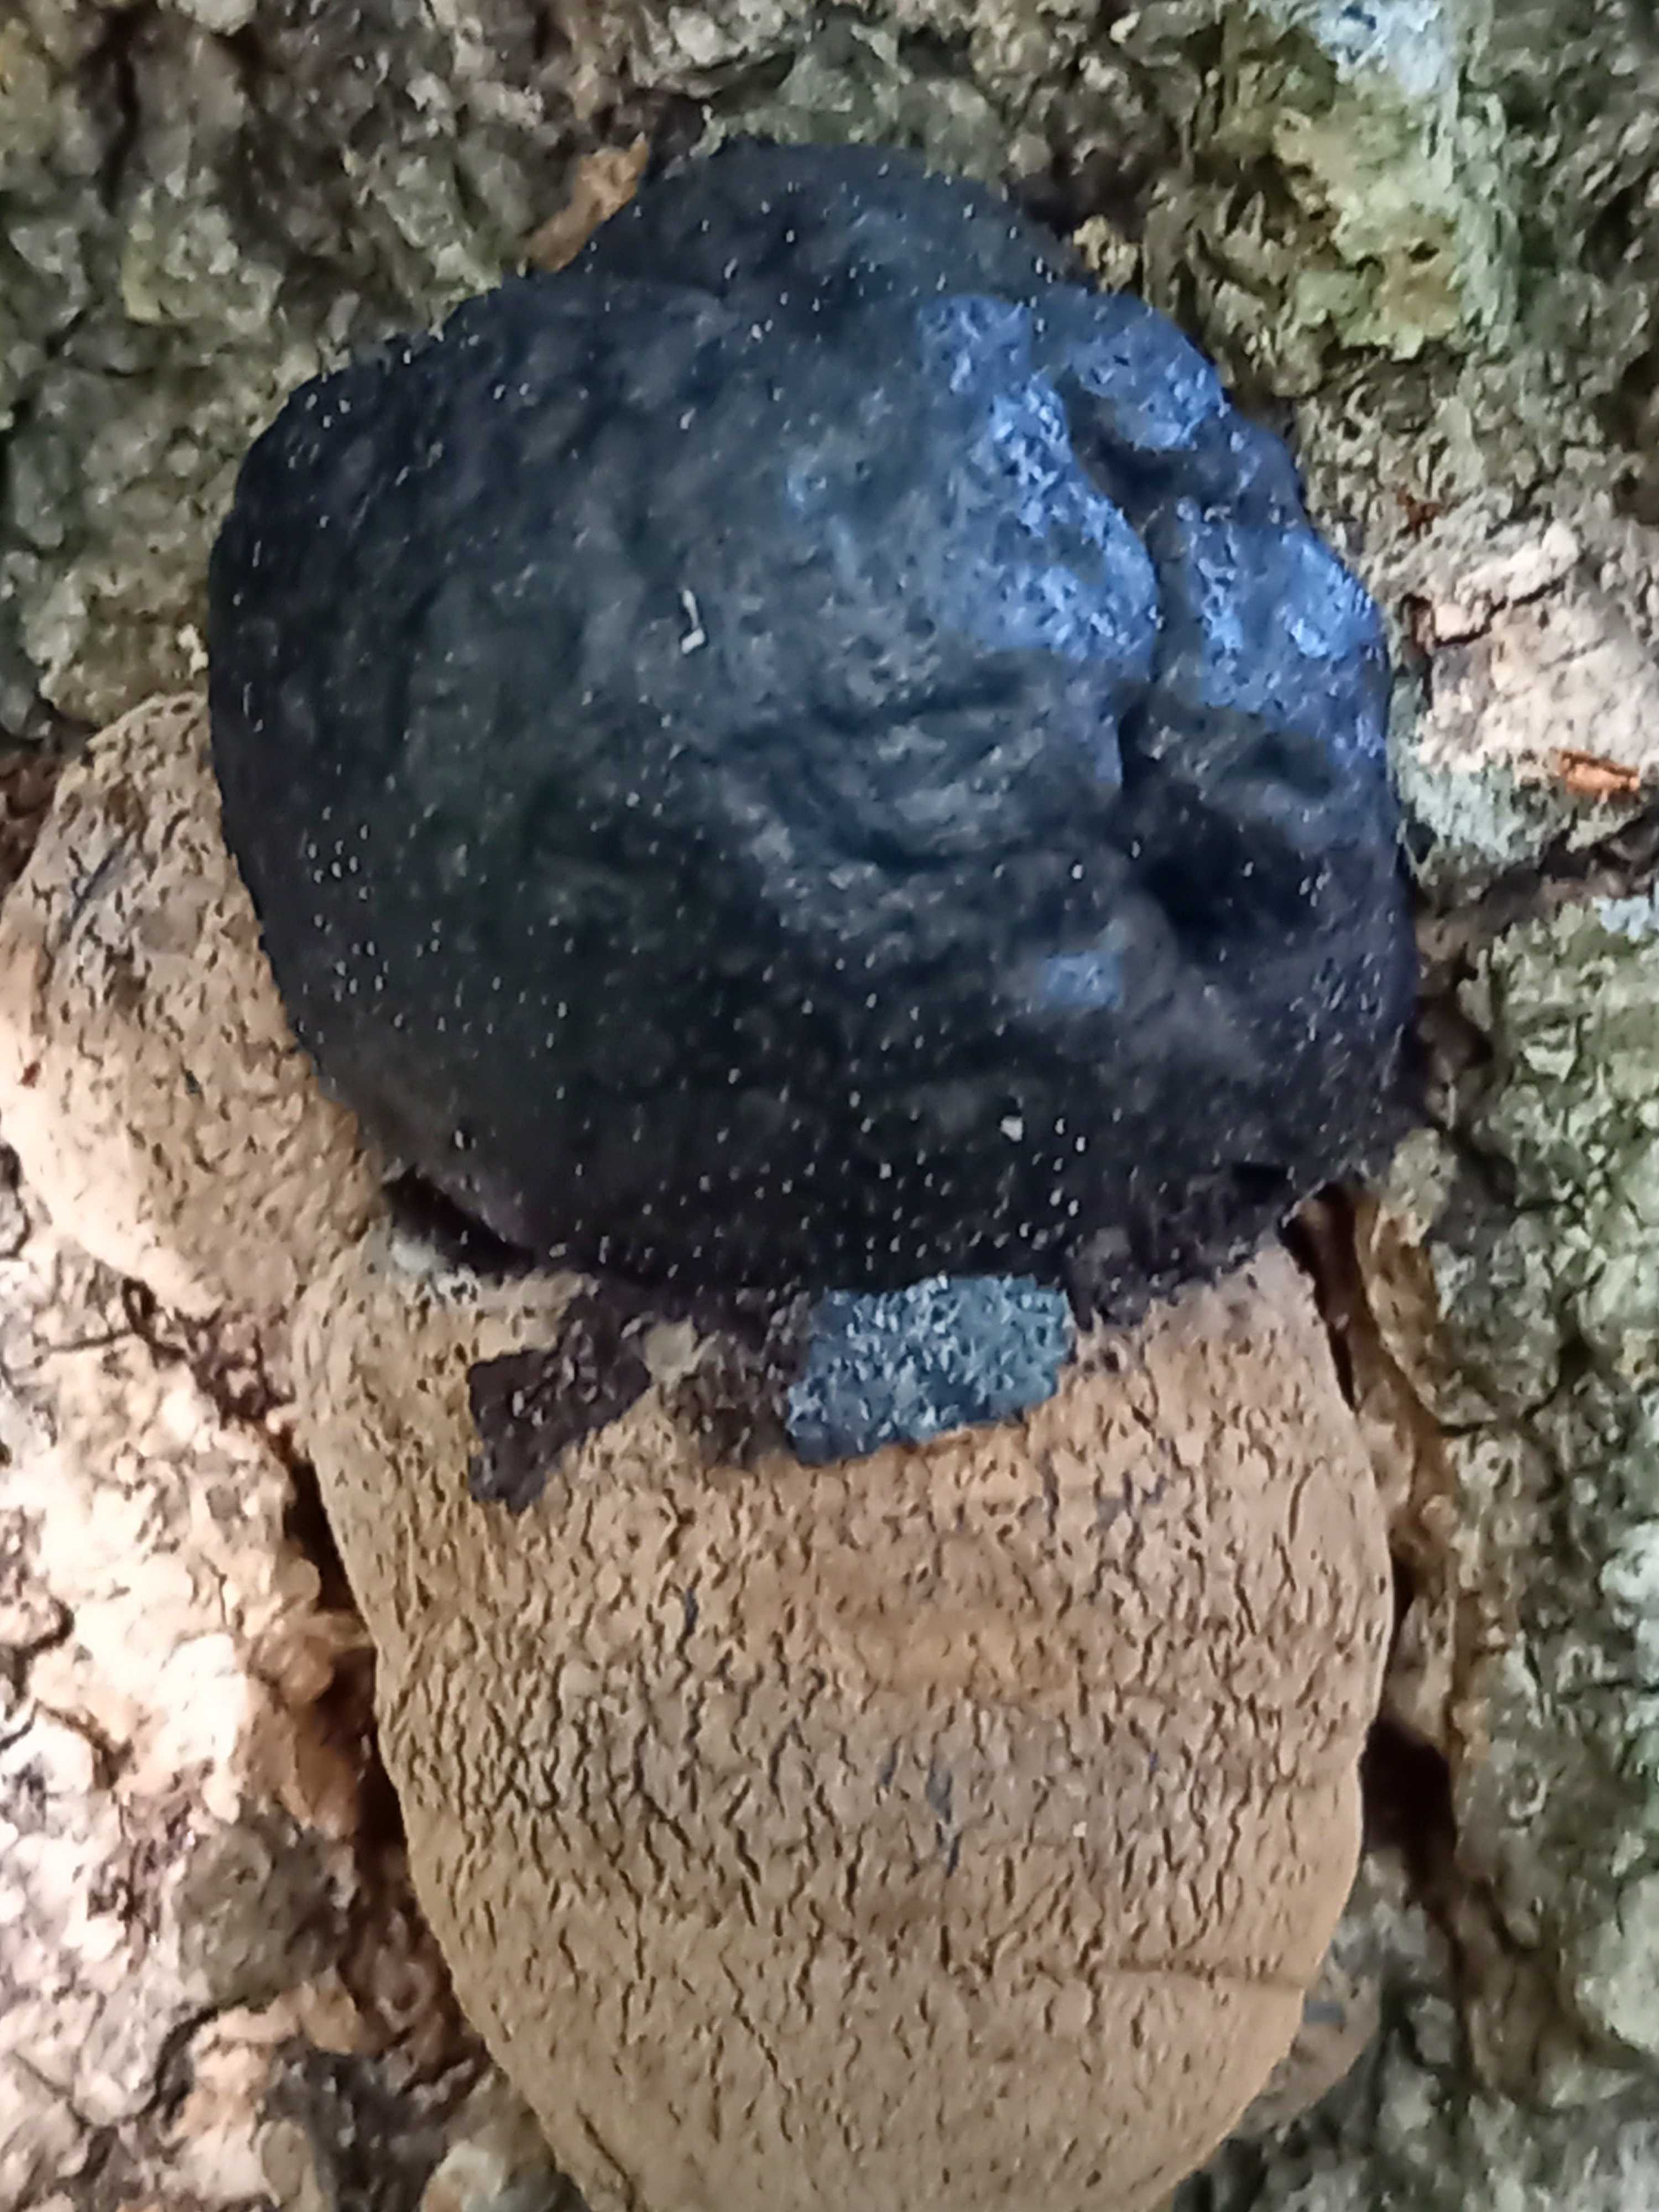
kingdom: Fungi
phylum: Ascomycota
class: Sordariomycetes
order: Xylariales
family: Hypoxylaceae
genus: Daldinia
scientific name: Daldinia concentrica
